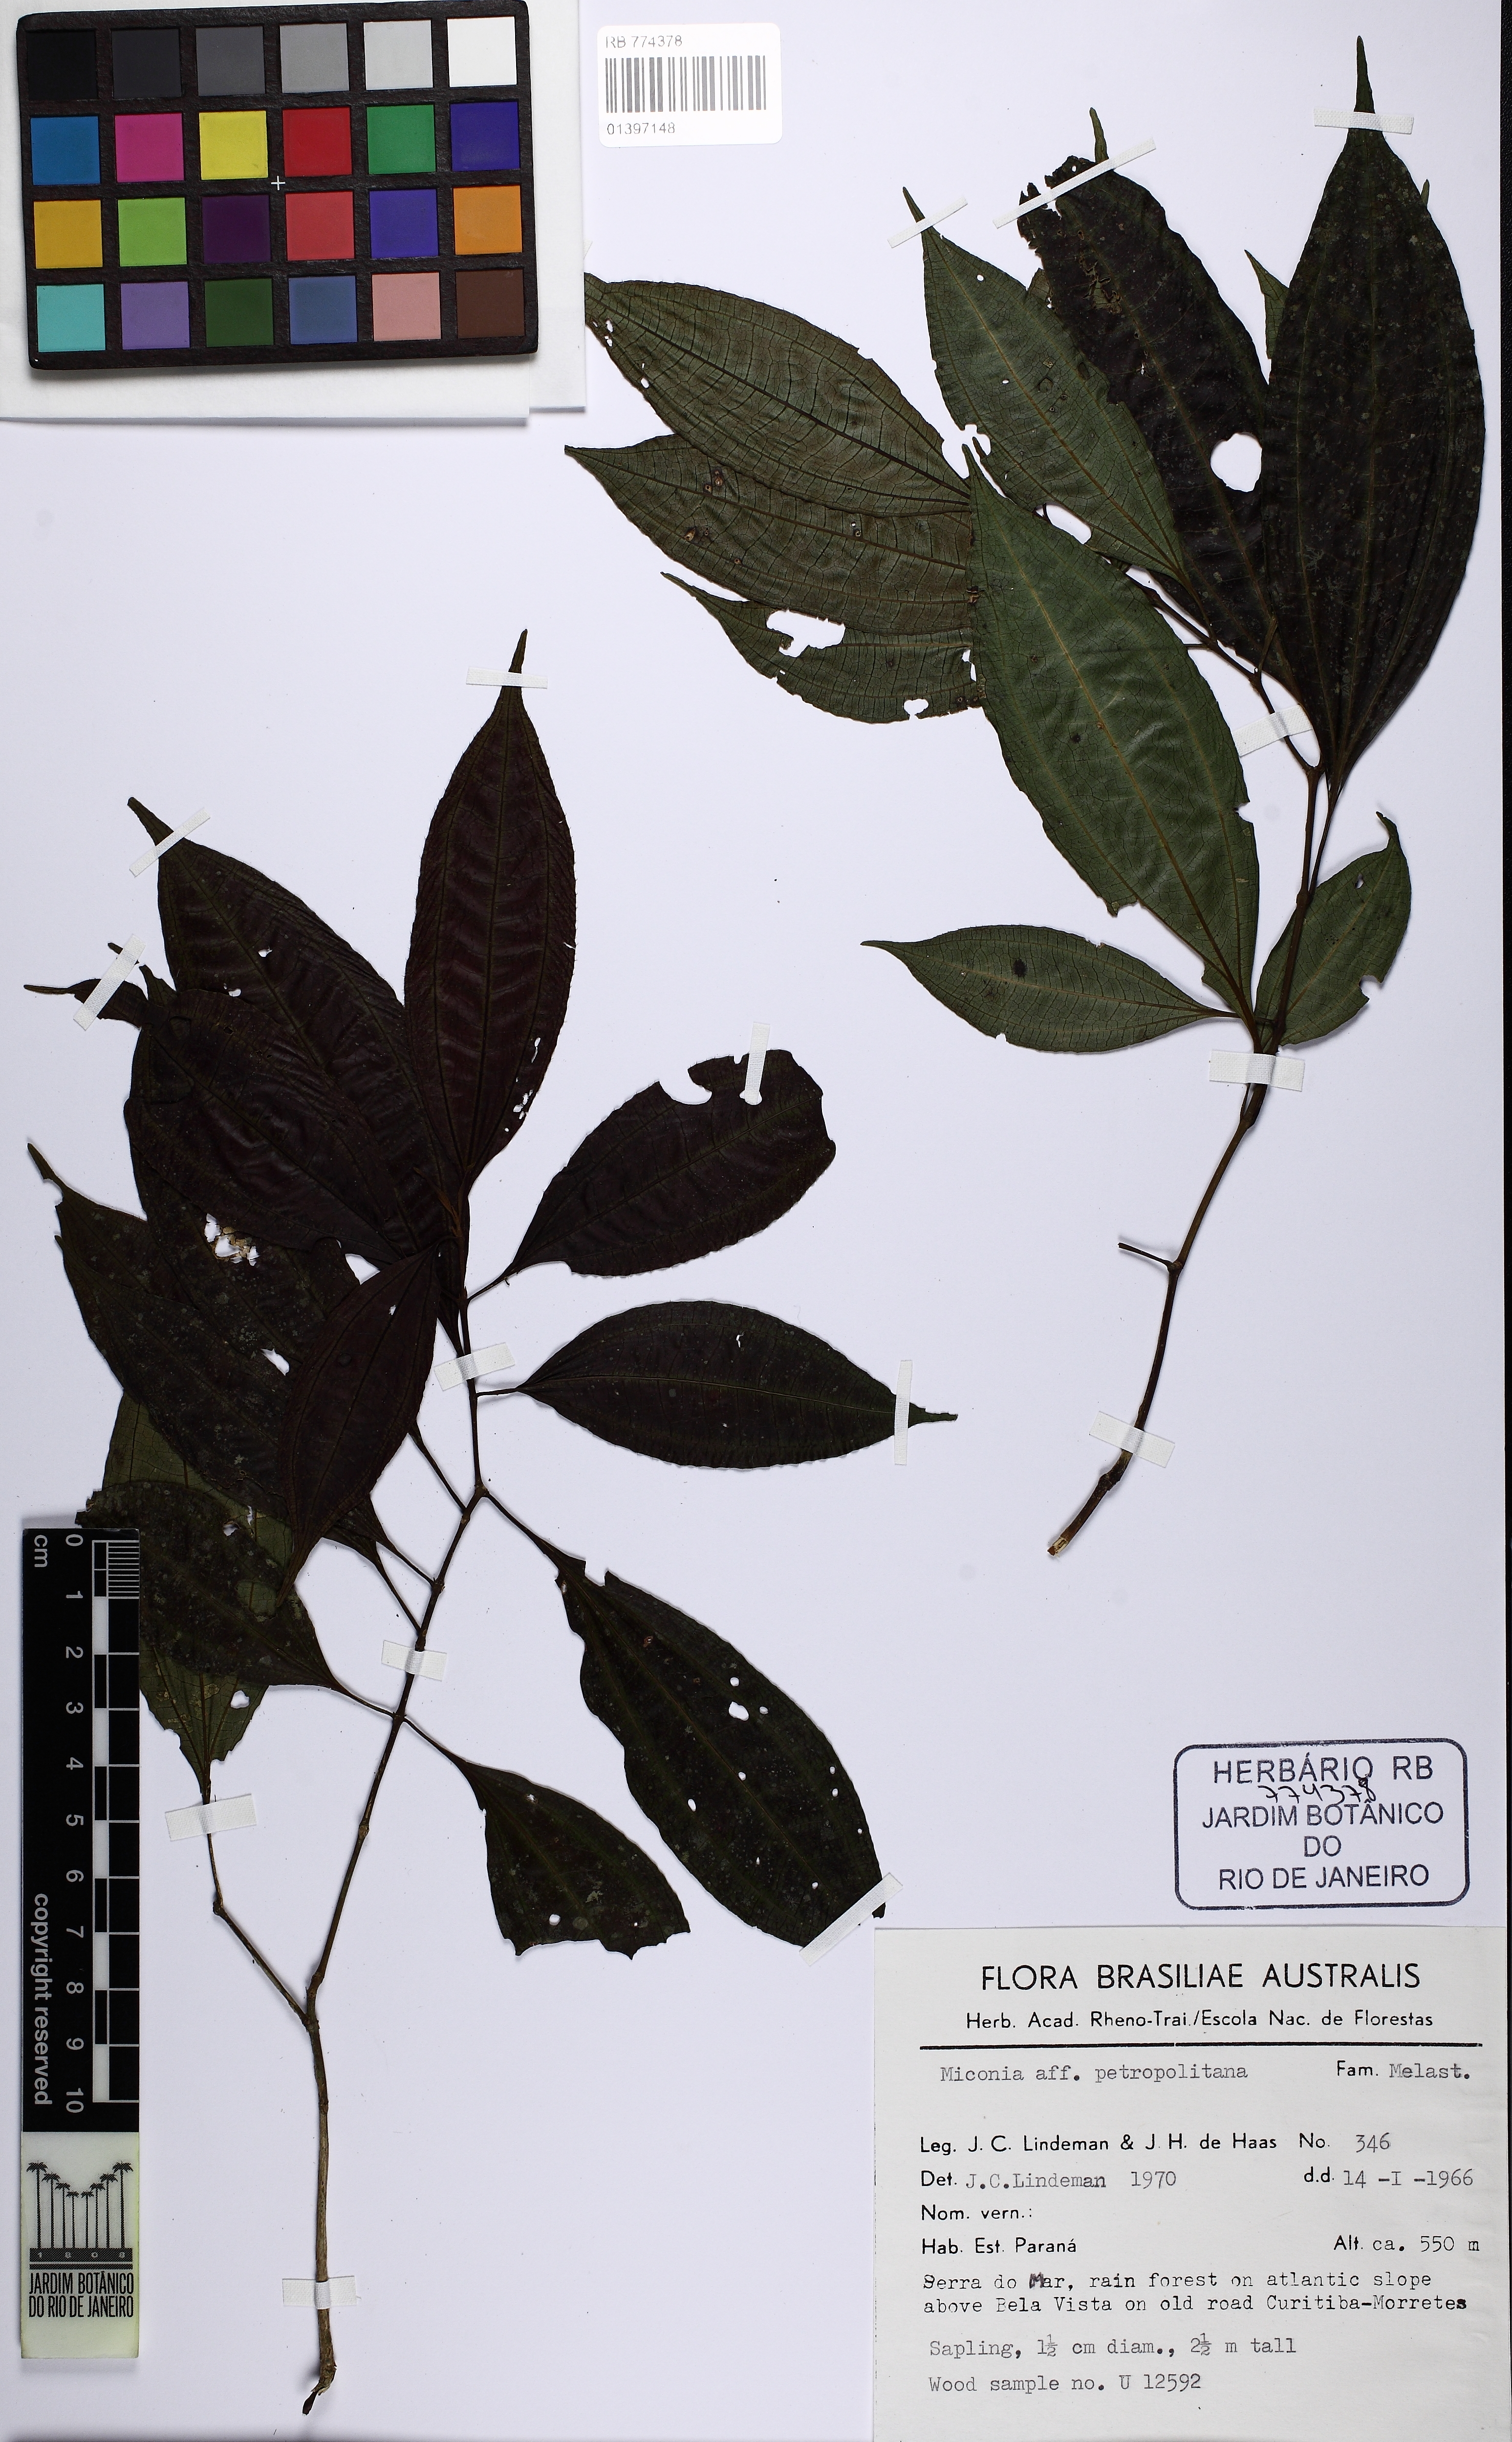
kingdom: Plantae
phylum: Tracheophyta
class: Magnoliopsida
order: Myrtales
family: Melastomataceae
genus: Miconia
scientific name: Miconia petropolitana
